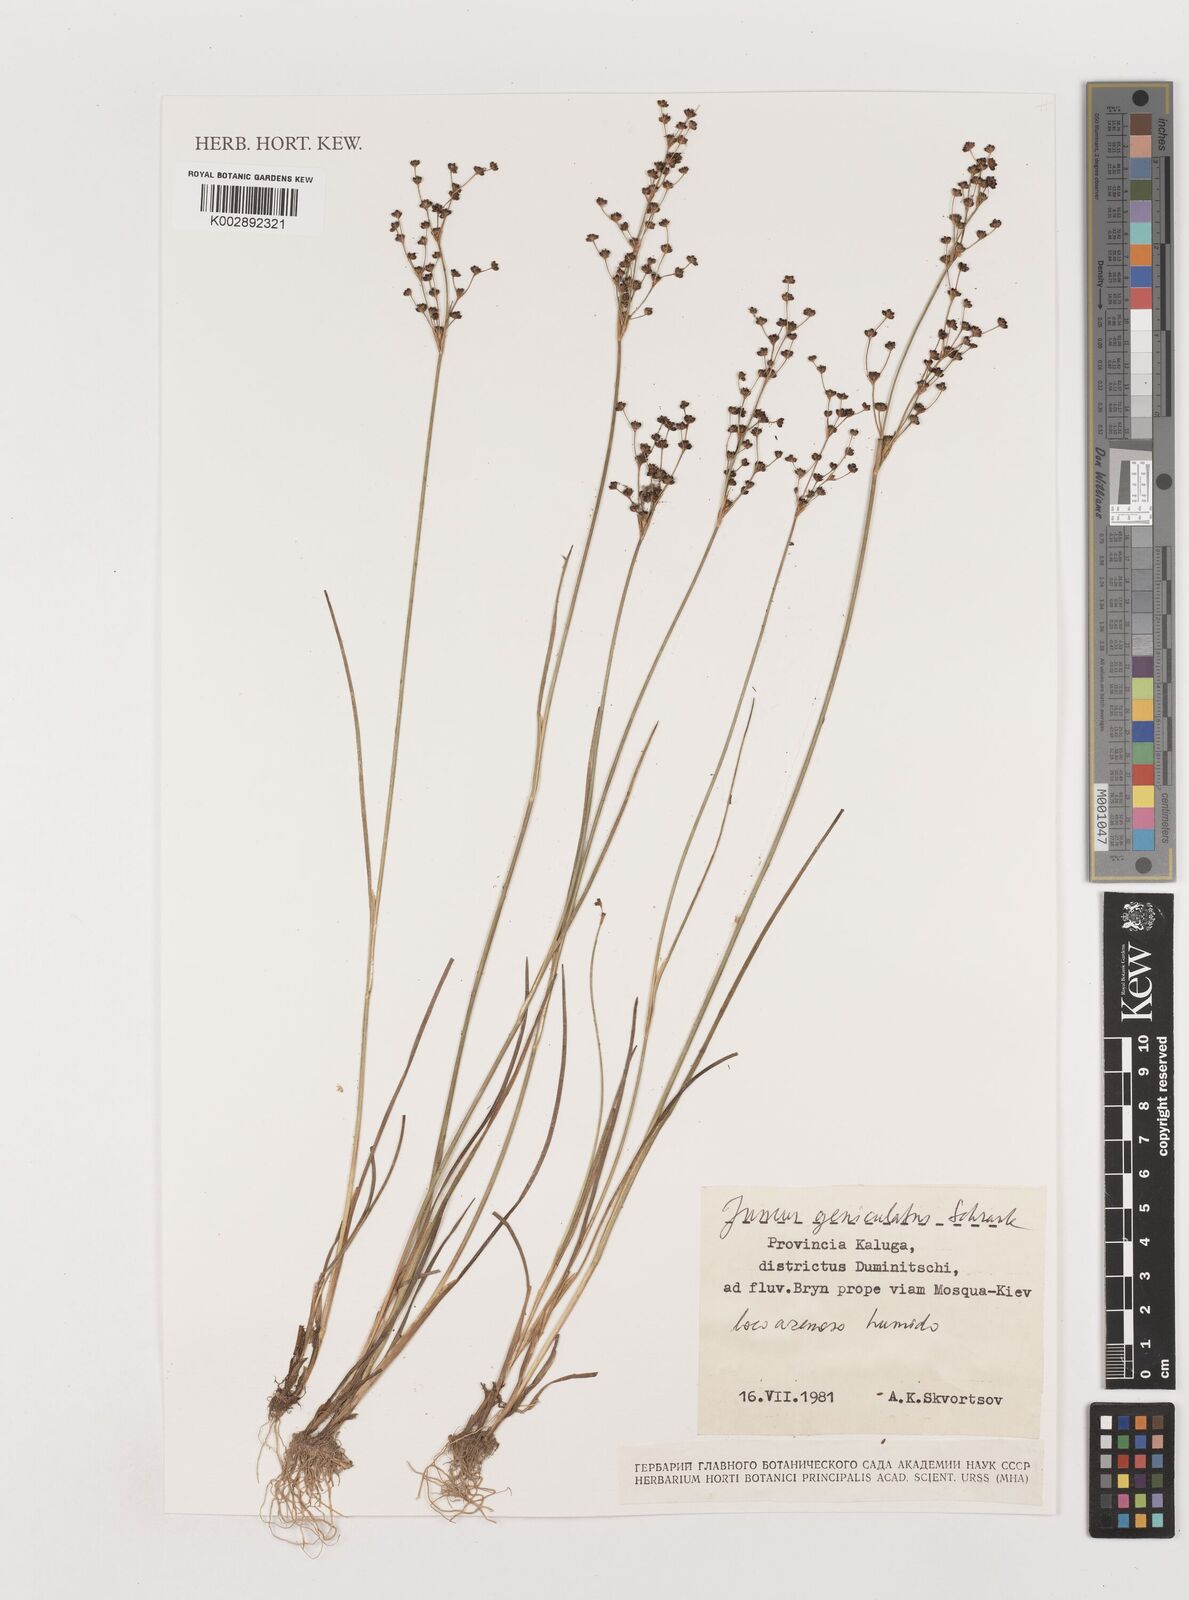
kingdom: Plantae
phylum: Tracheophyta
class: Liliopsida
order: Poales
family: Juncaceae
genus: Juncus
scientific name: Juncus alpinoarticulatus
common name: Alpine rush
